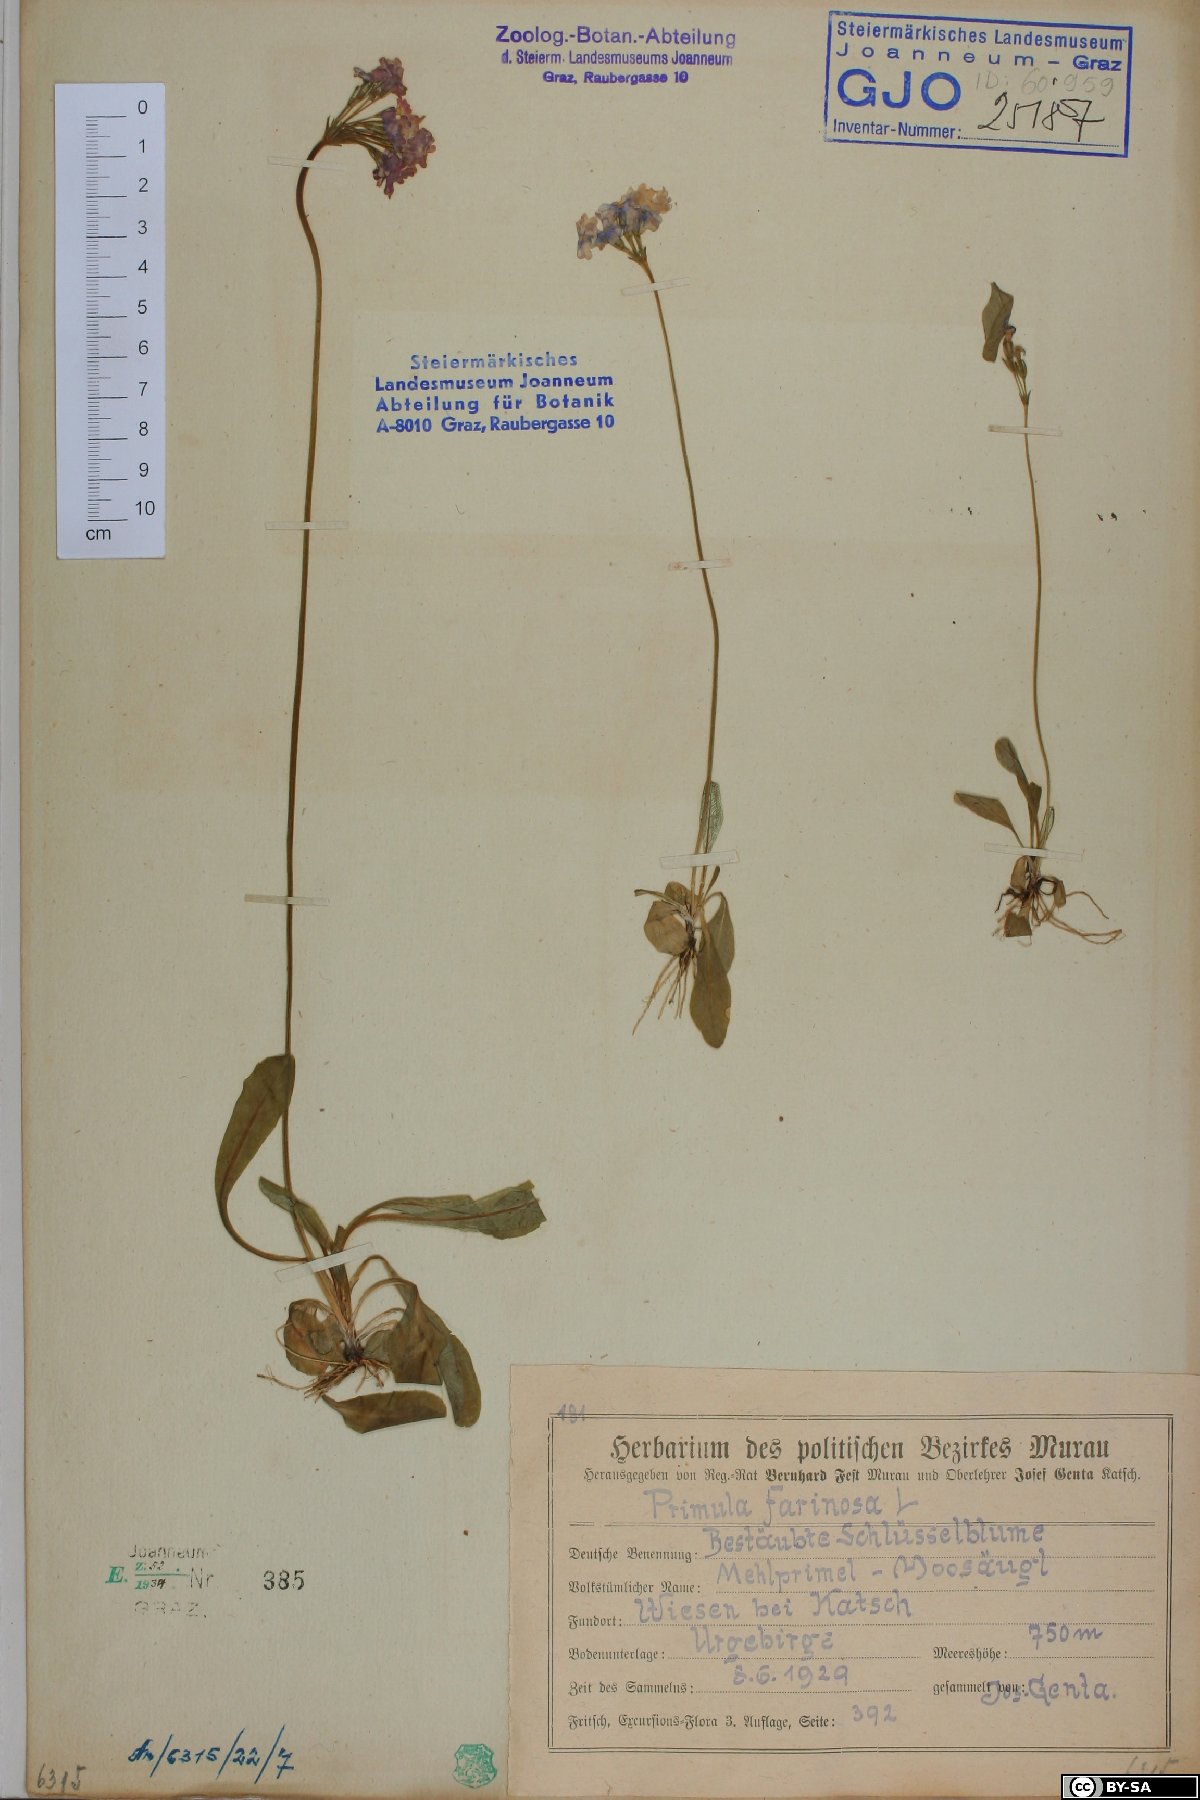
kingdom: Plantae
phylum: Tracheophyta
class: Magnoliopsida
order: Ericales
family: Primulaceae
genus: Primula
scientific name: Primula farinosa
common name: Bird's-eye primrose
